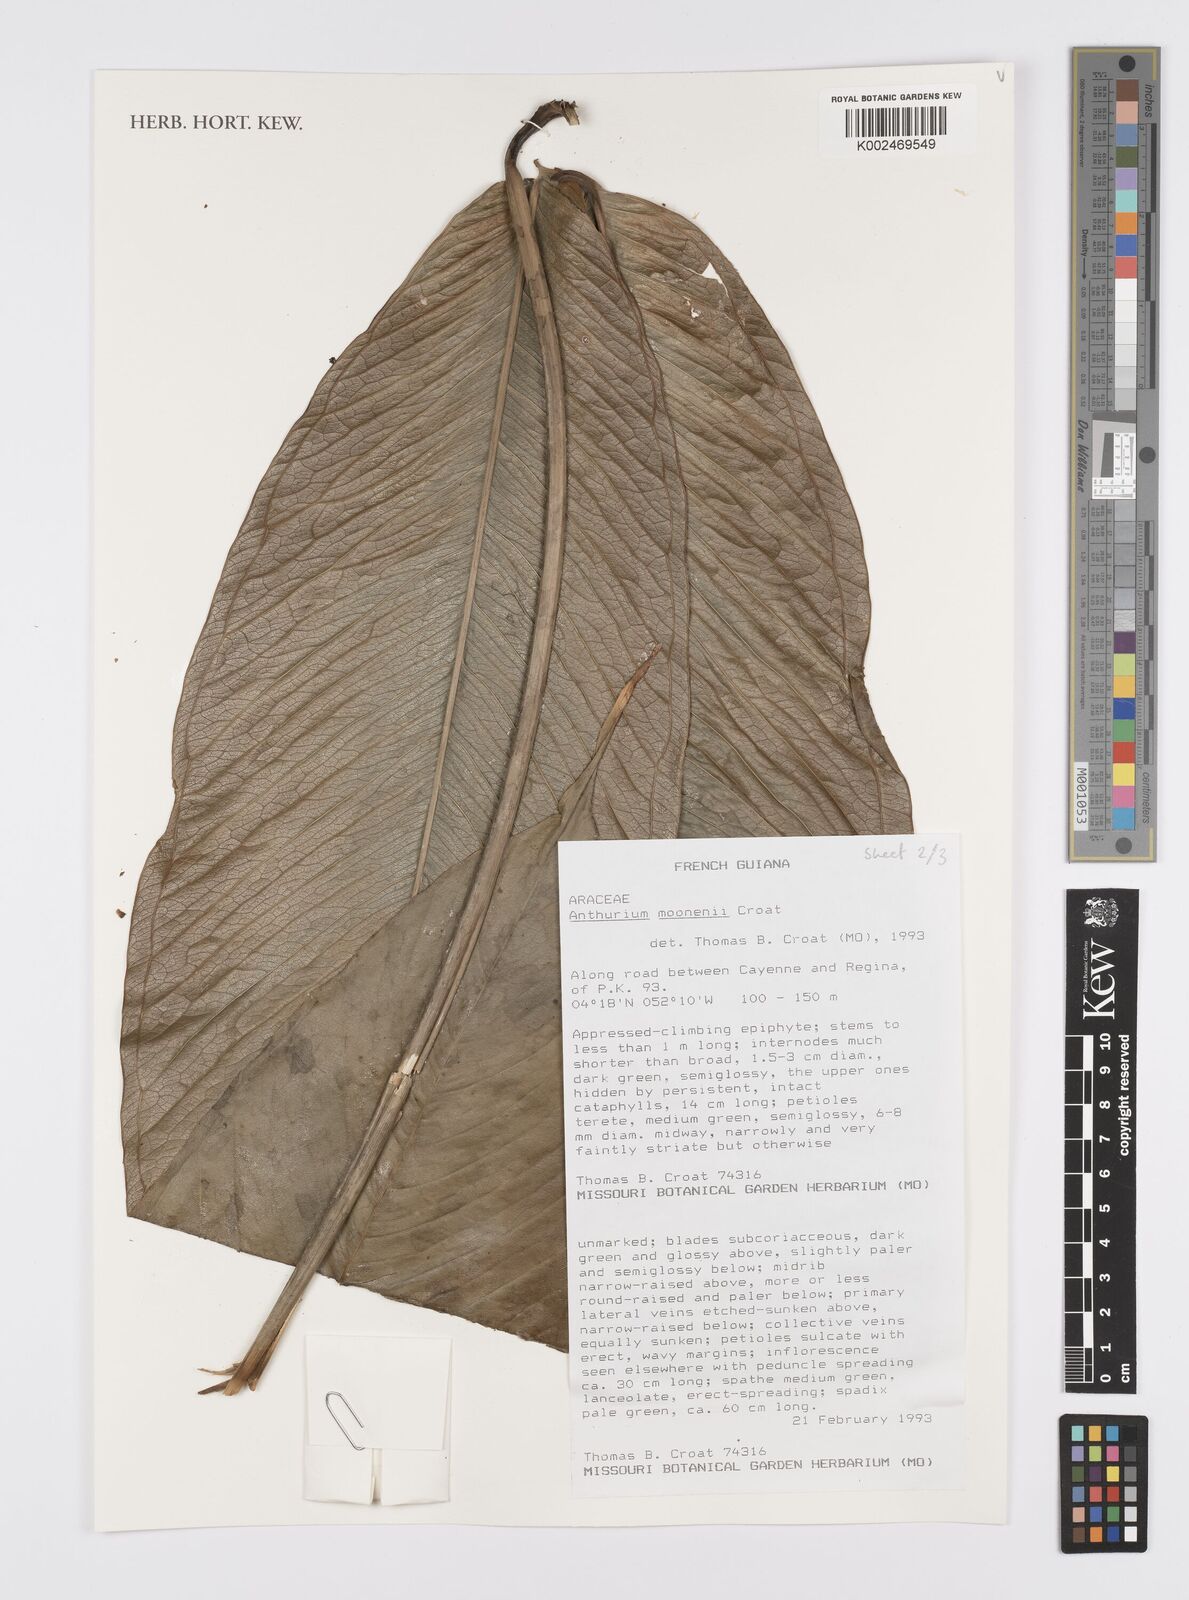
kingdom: Plantae
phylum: Tracheophyta
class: Liliopsida
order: Alismatales
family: Araceae
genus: Anthurium
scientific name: Anthurium moonenii
